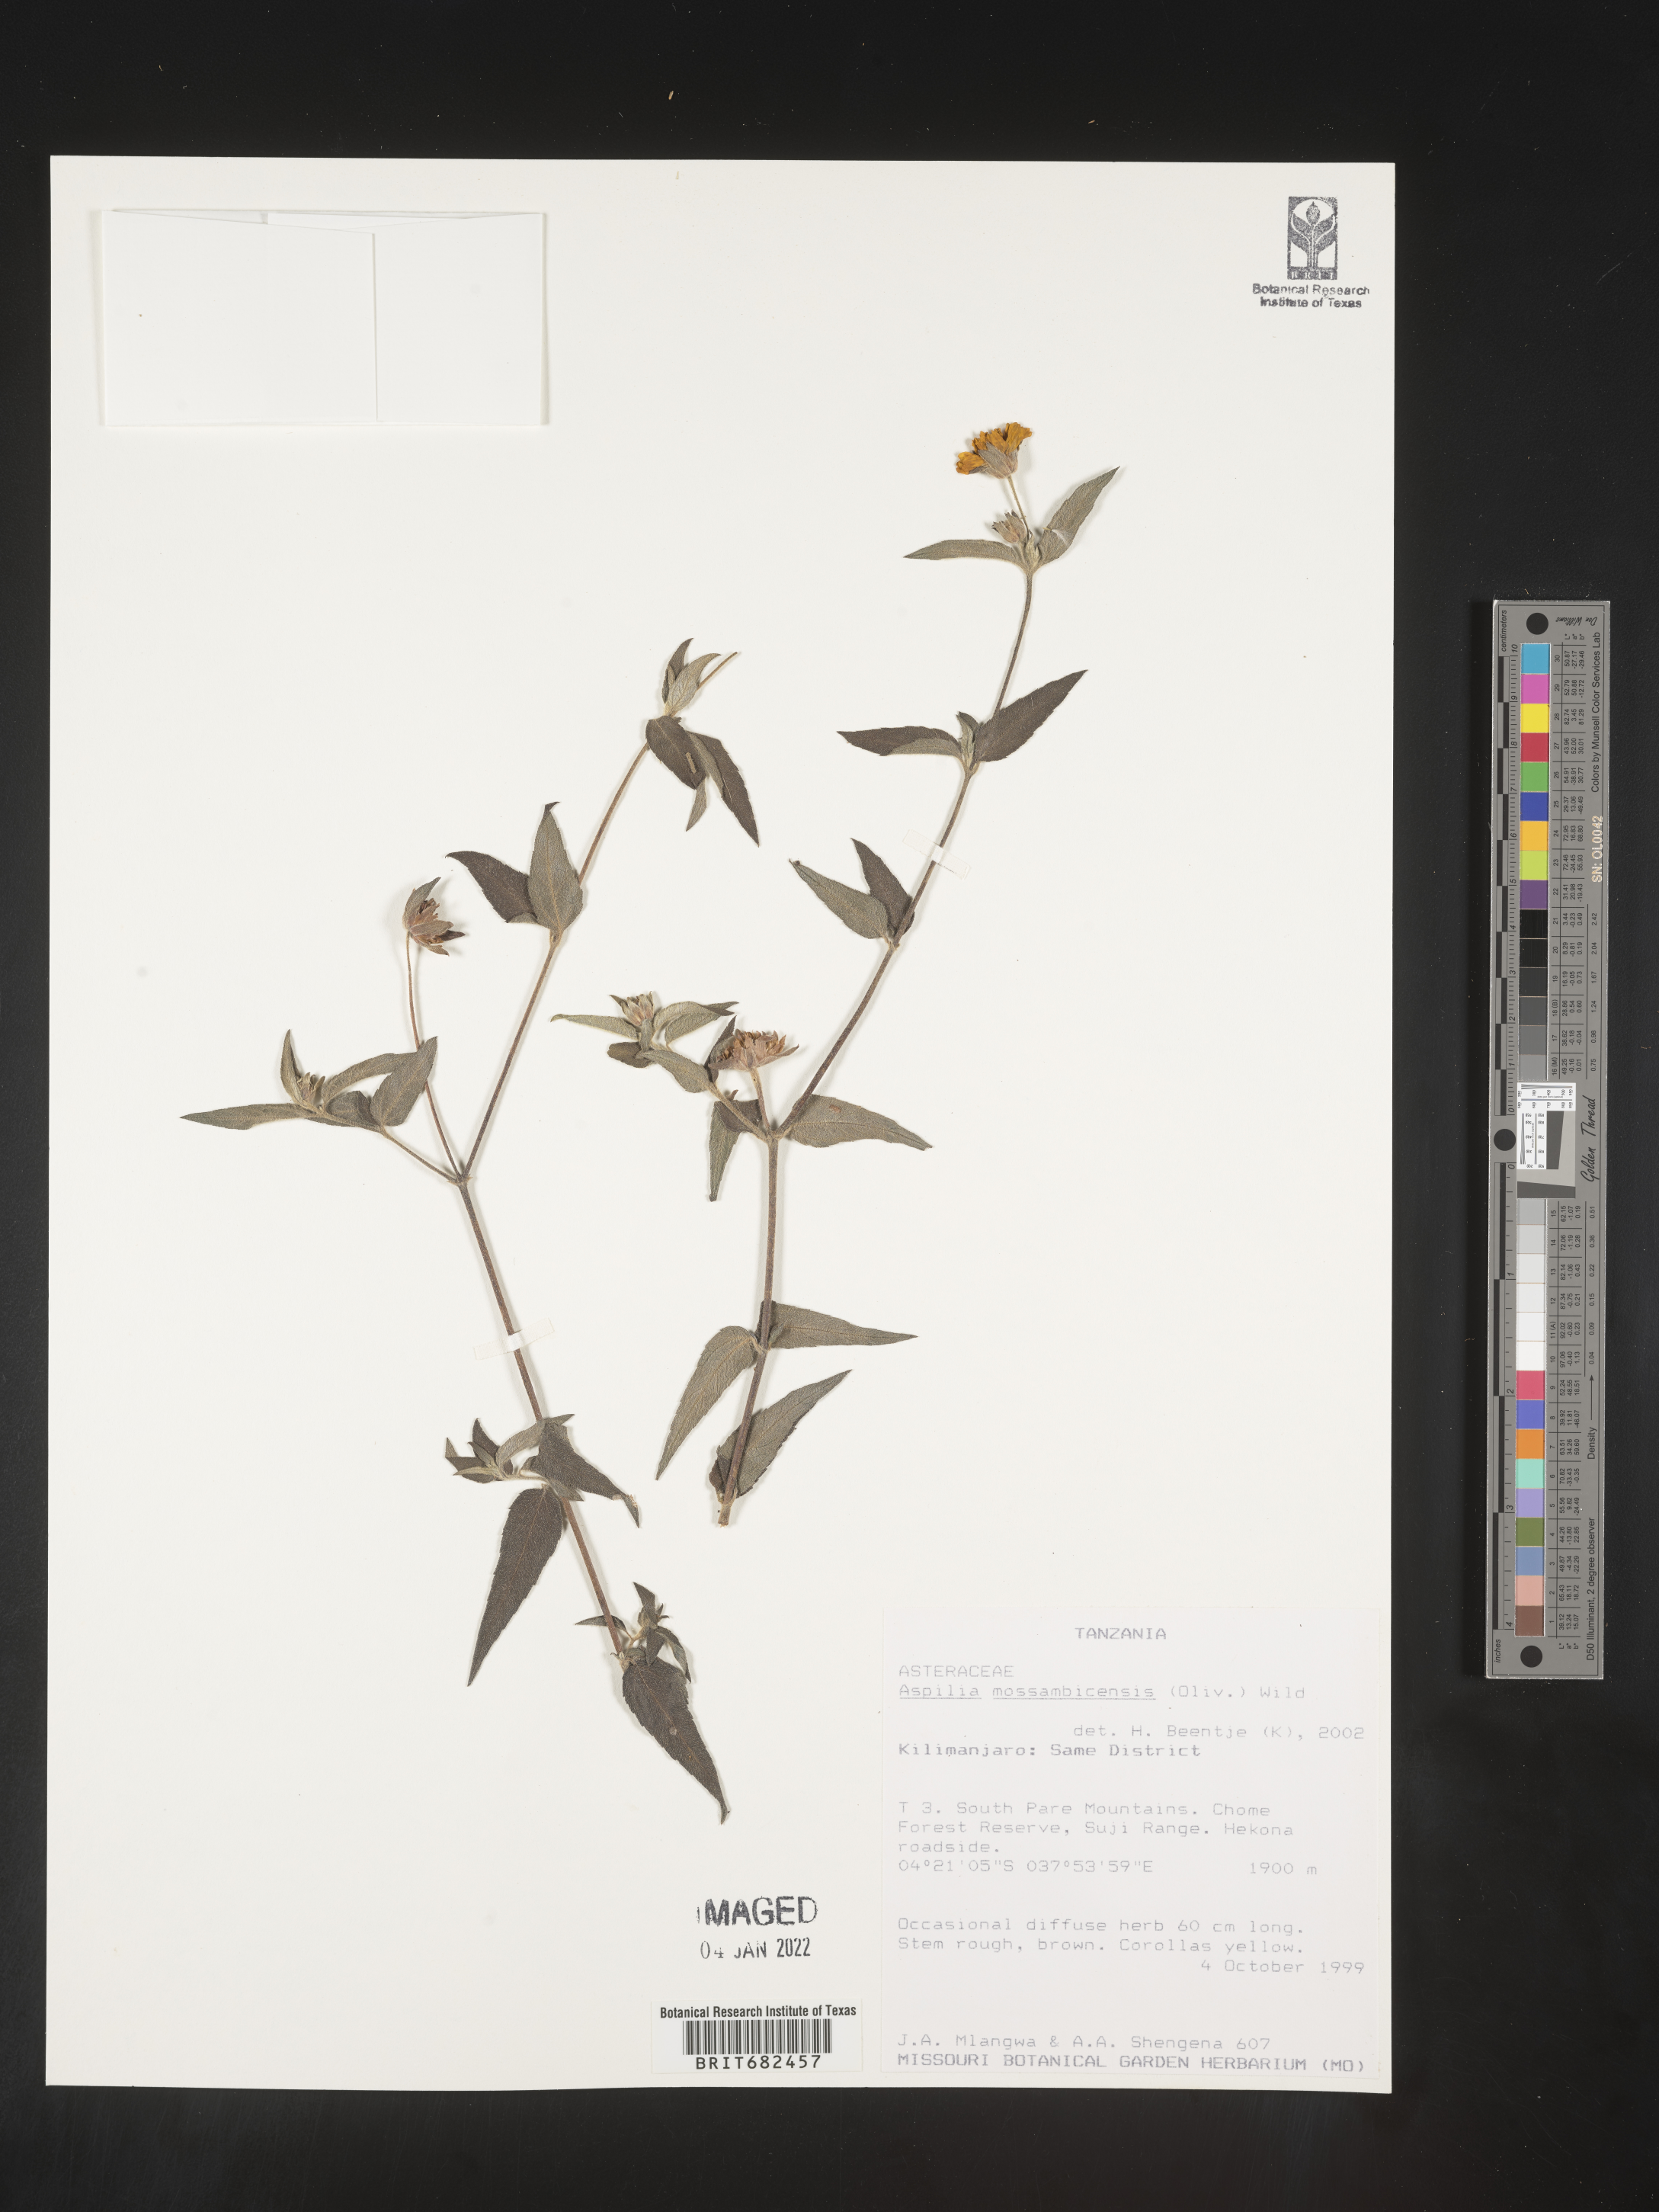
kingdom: Plantae
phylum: Tracheophyta
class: Magnoliopsida
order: Asterales
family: Asteraceae
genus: Aspilia
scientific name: Aspilia
